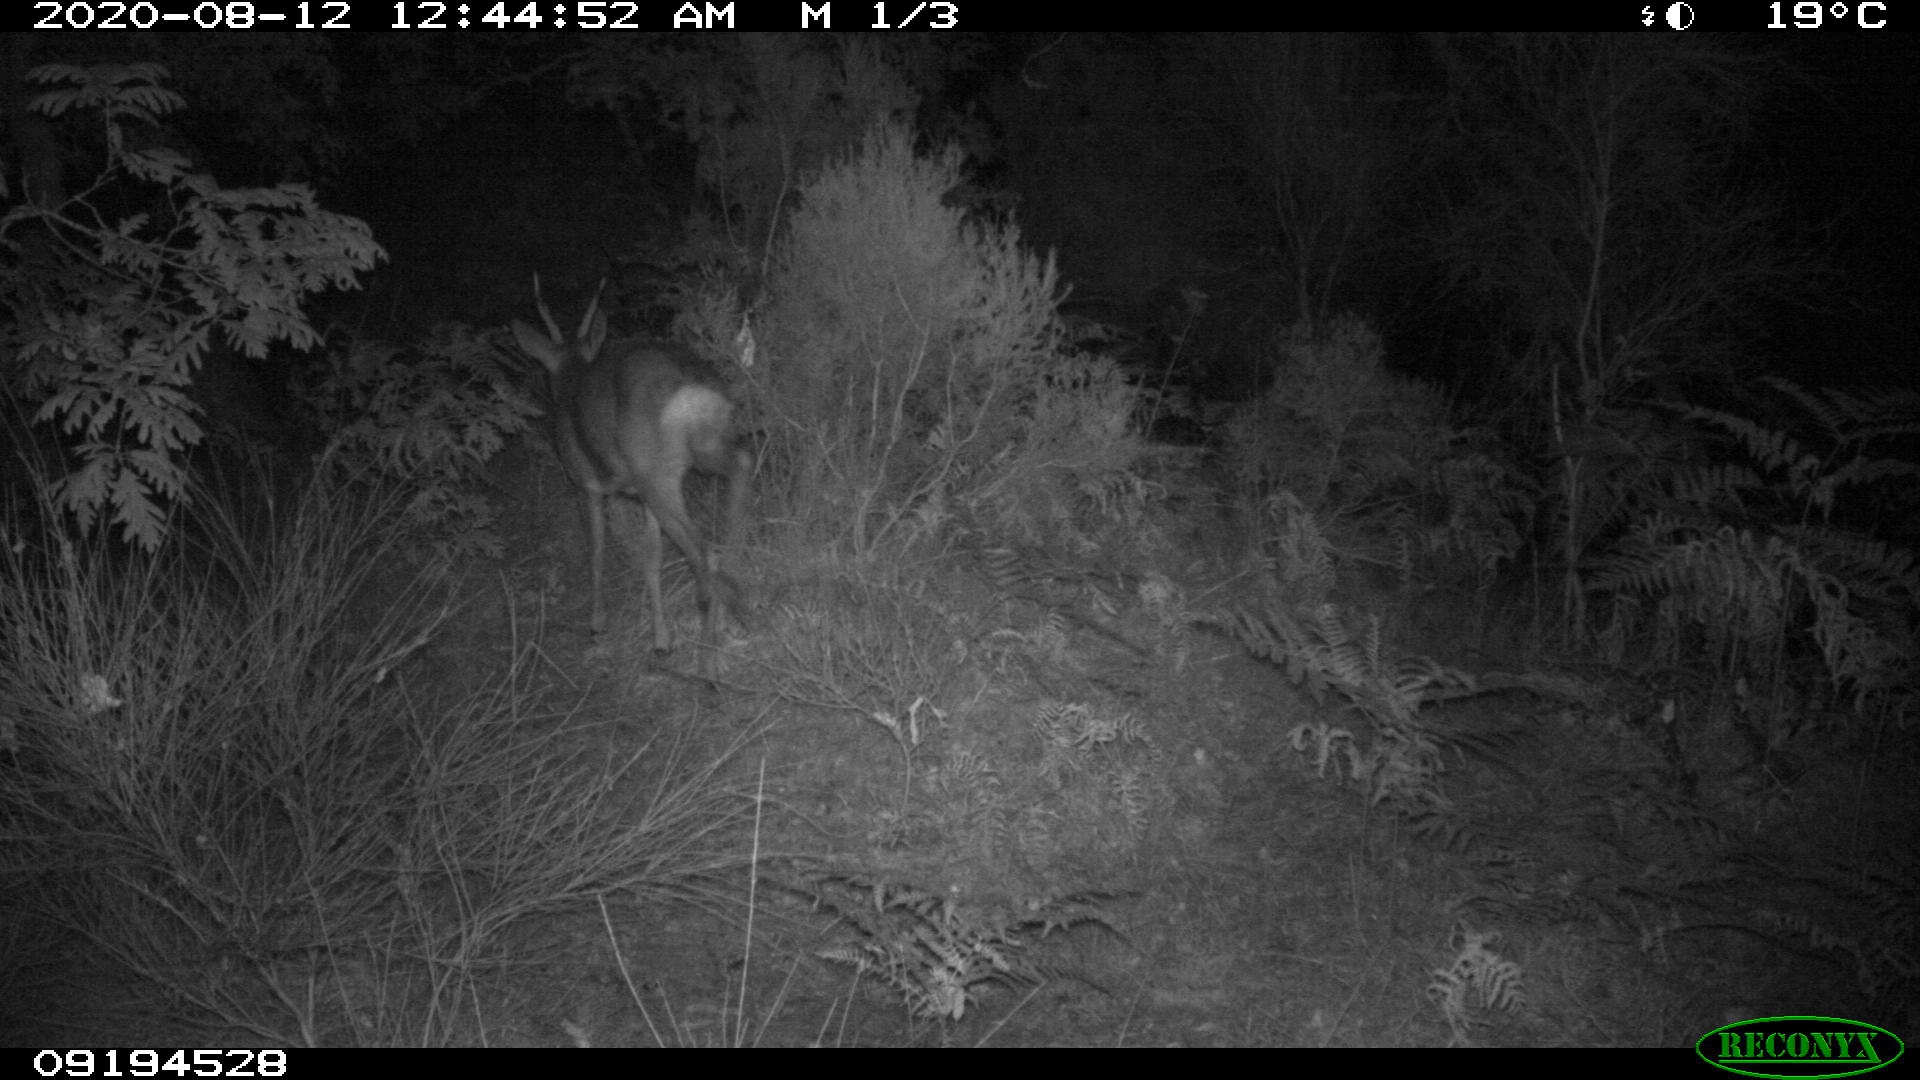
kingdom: Animalia
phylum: Chordata
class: Mammalia
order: Artiodactyla
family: Cervidae
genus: Capreolus
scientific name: Capreolus capreolus
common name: Western roe deer
